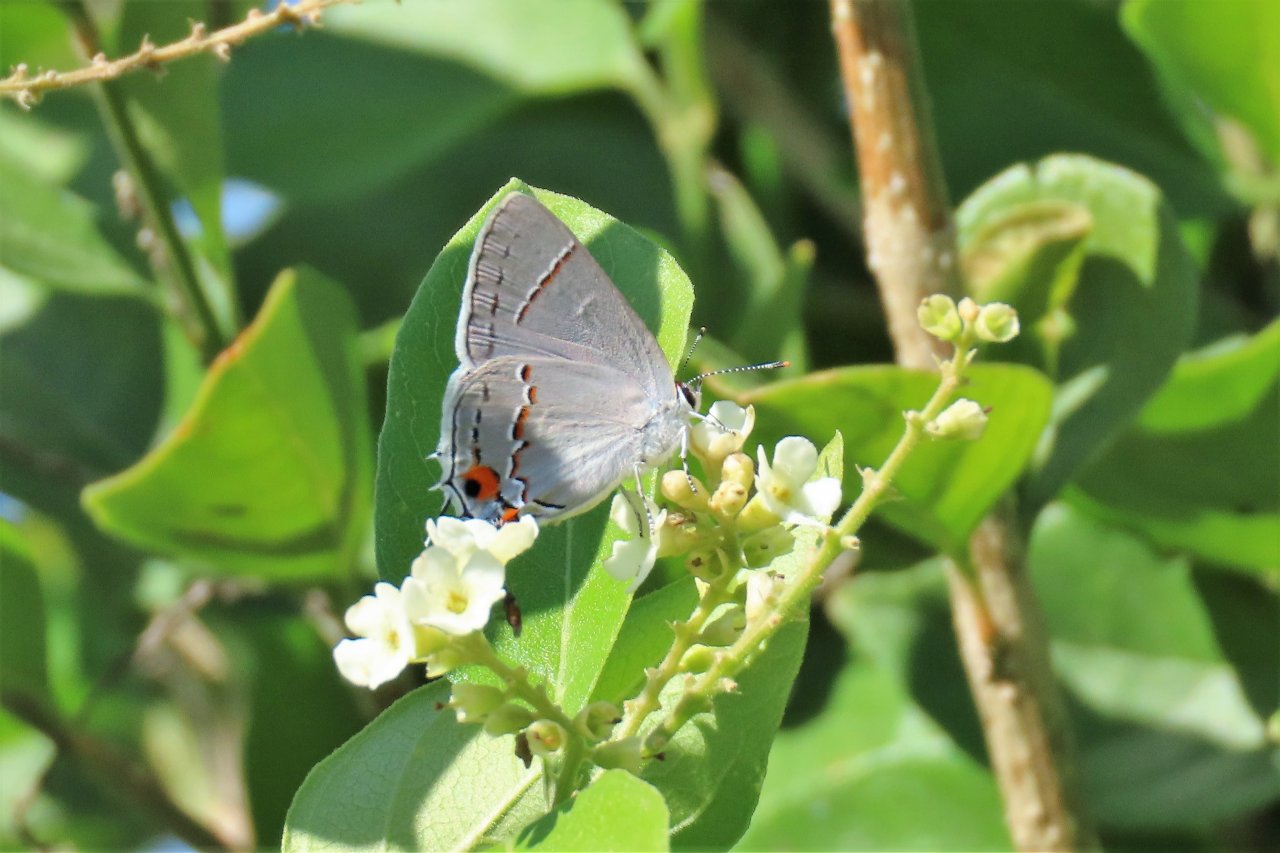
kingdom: Animalia
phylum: Arthropoda
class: Insecta
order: Lepidoptera
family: Lycaenidae
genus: Strymon
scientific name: Strymon melinus
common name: Gray Hairstreak
